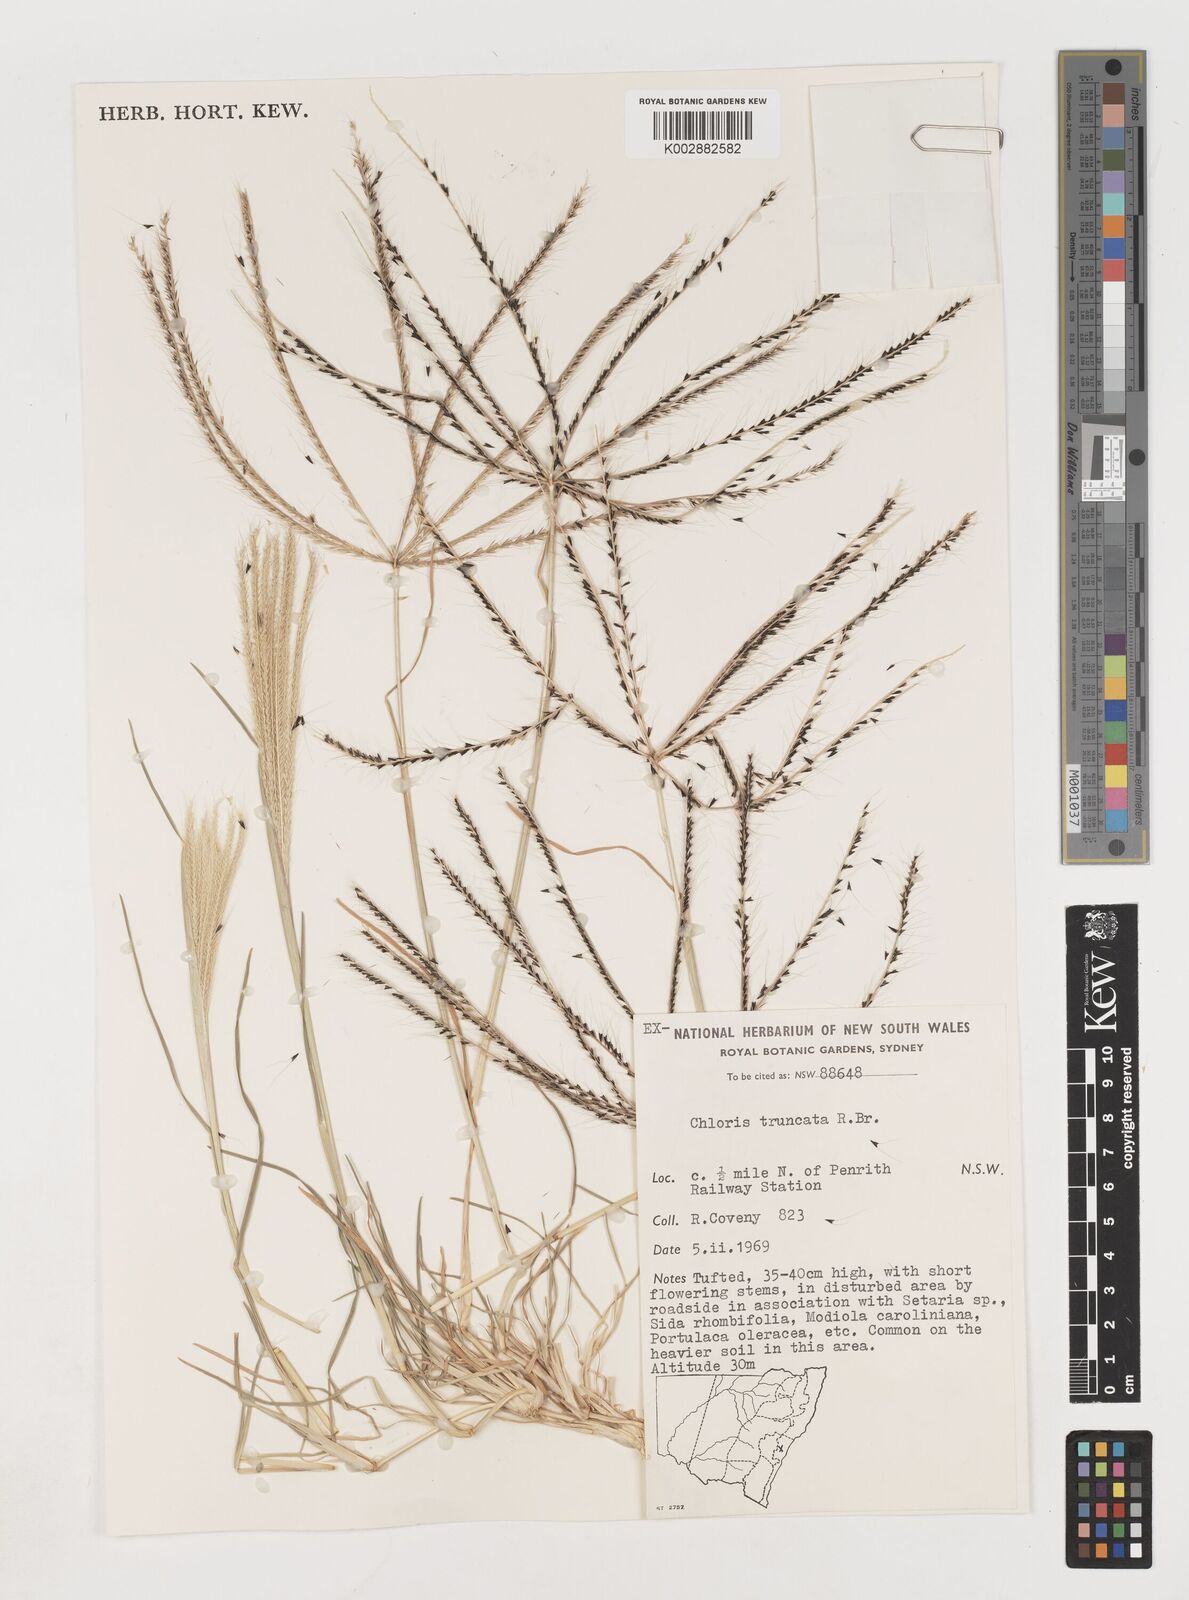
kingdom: Plantae
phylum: Tracheophyta
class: Liliopsida
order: Poales
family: Poaceae
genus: Chloris
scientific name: Chloris truncata
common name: Windmill-grass
